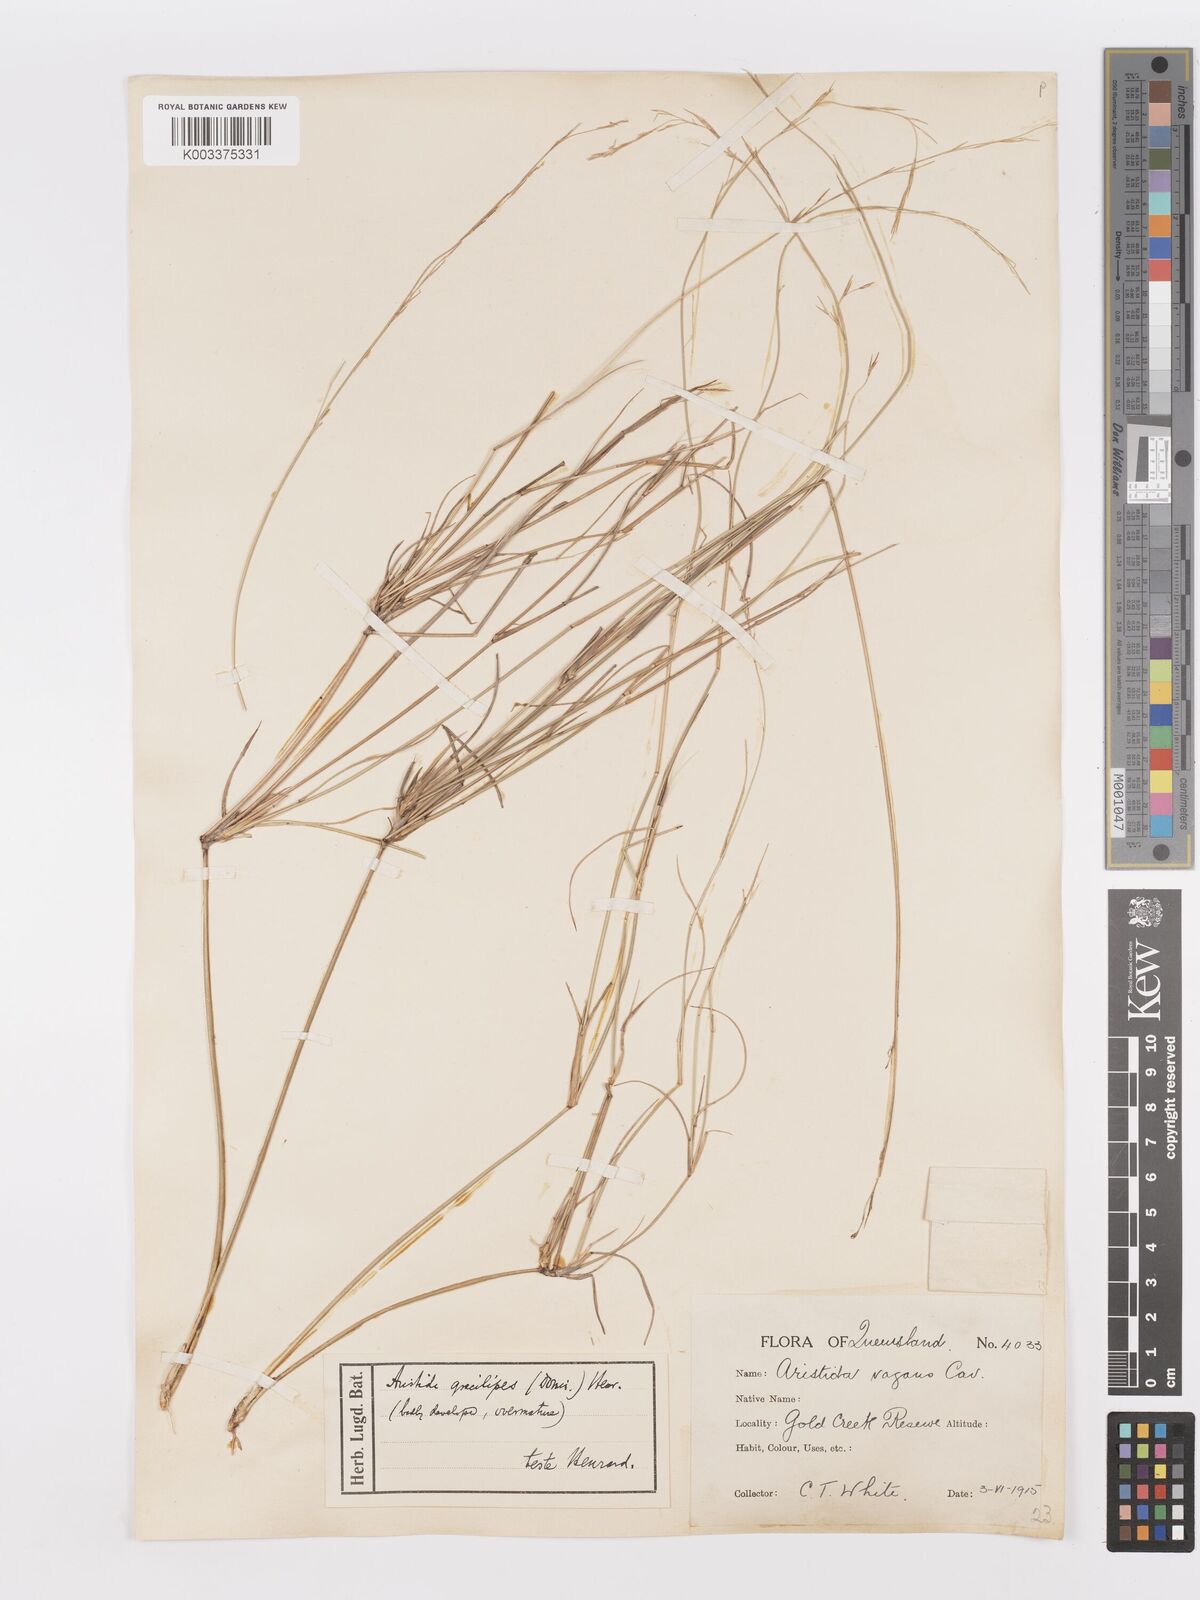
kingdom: Plantae
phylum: Tracheophyta
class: Liliopsida
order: Poales
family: Poaceae
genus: Aristida
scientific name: Aristida gracilipes
